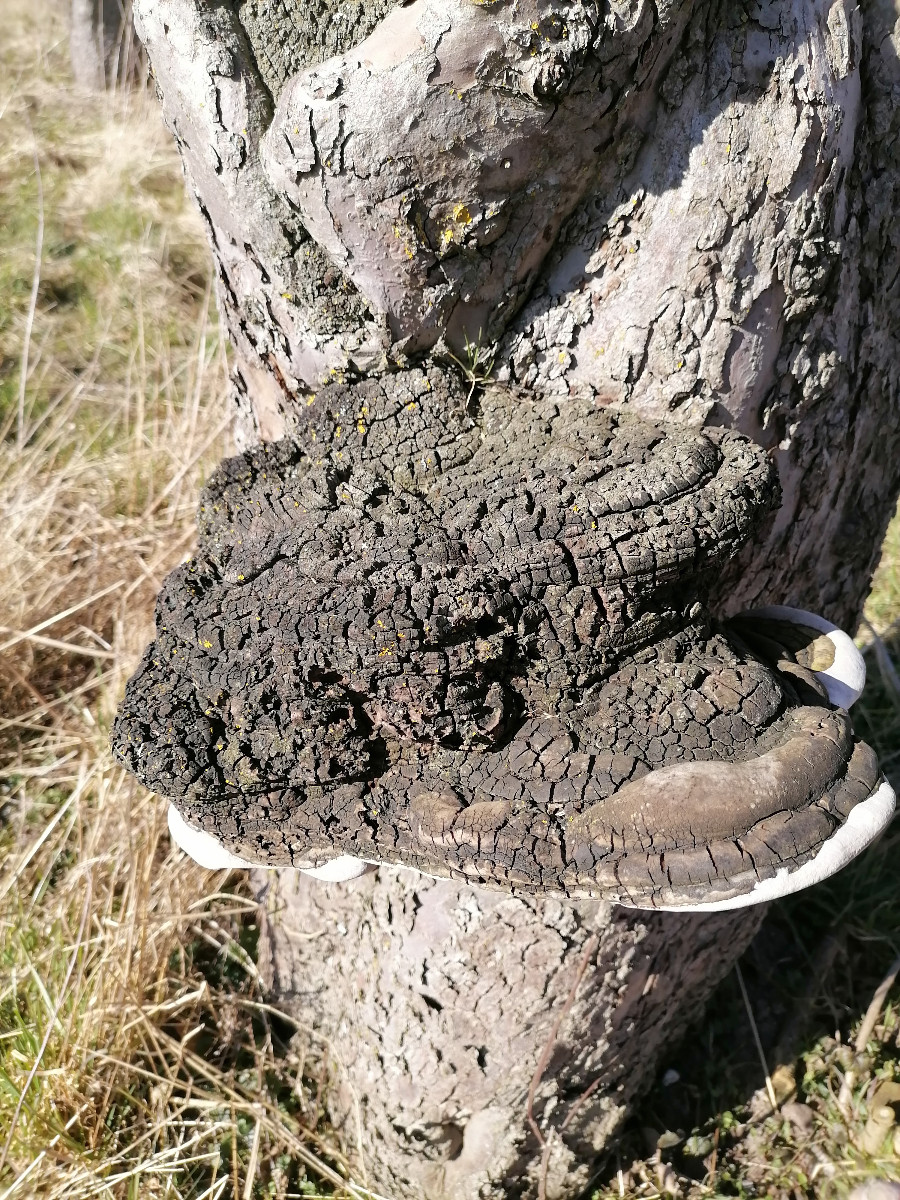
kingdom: Fungi
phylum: Basidiomycota
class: Agaricomycetes
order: Hymenochaetales
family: Hymenochaetaceae
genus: Phellinus
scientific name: Phellinus
